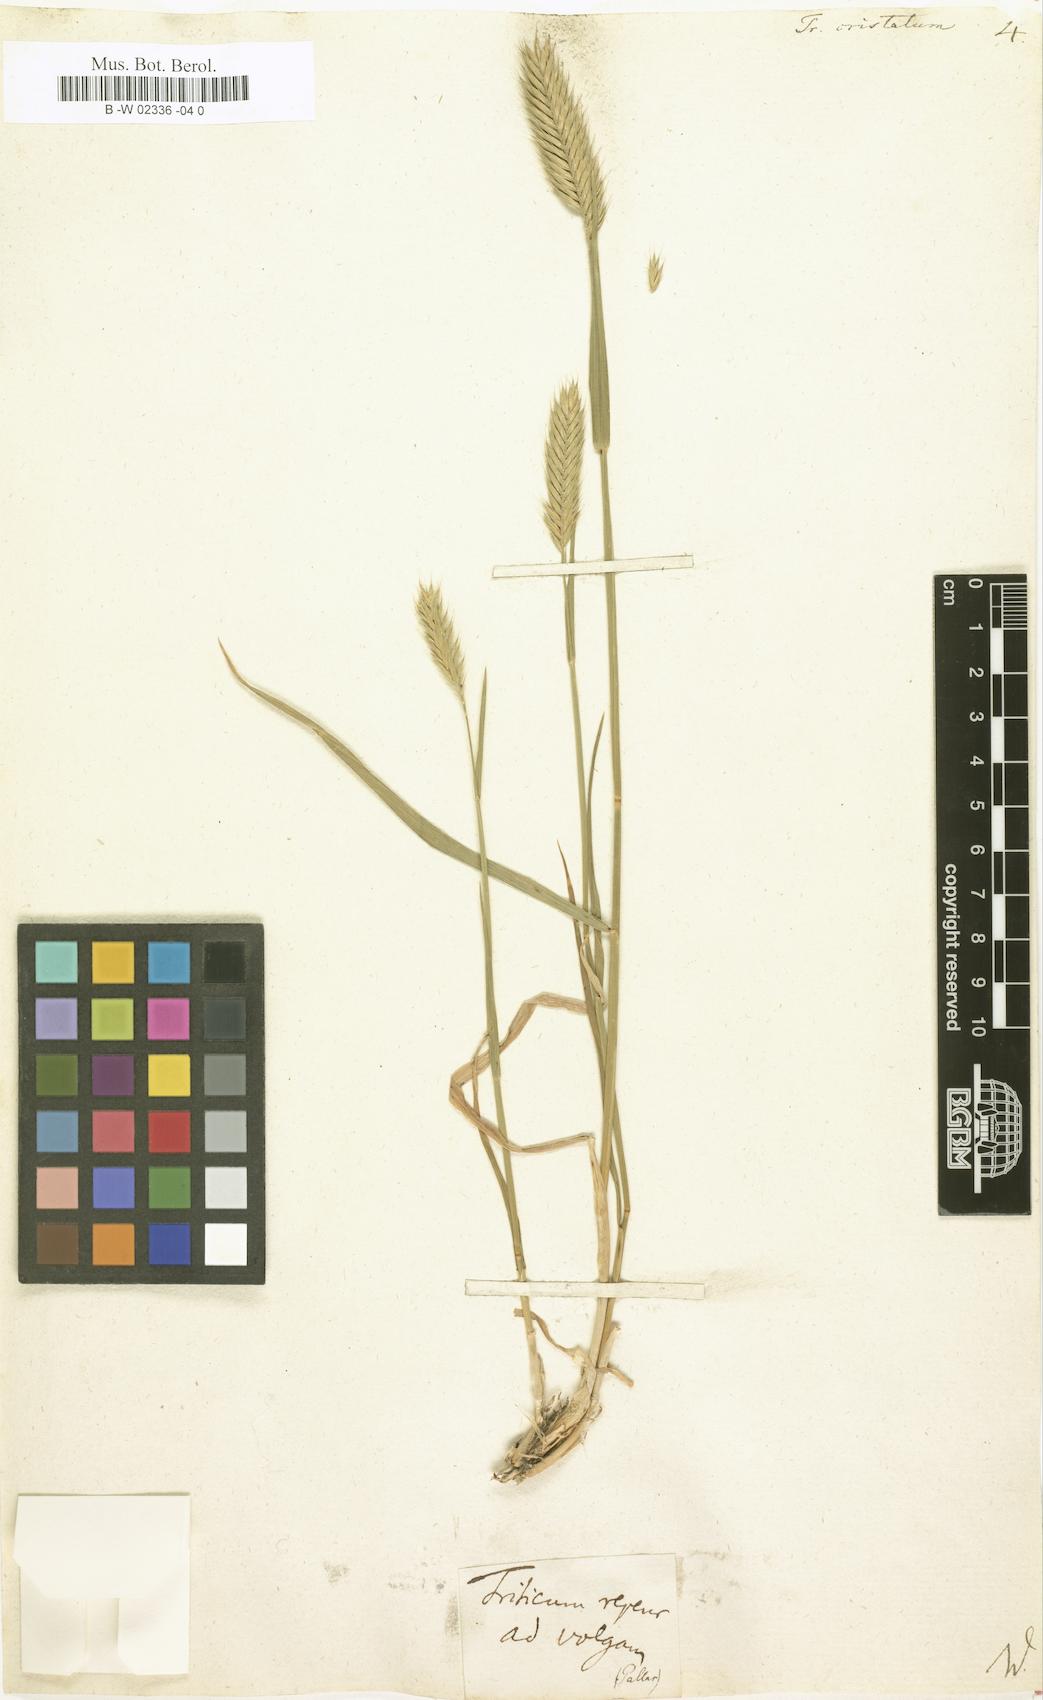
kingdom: Plantae
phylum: Tracheophyta
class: Liliopsida
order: Poales
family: Poaceae
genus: Agropyron
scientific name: Agropyron cristatum
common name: Crested wheatgrass
